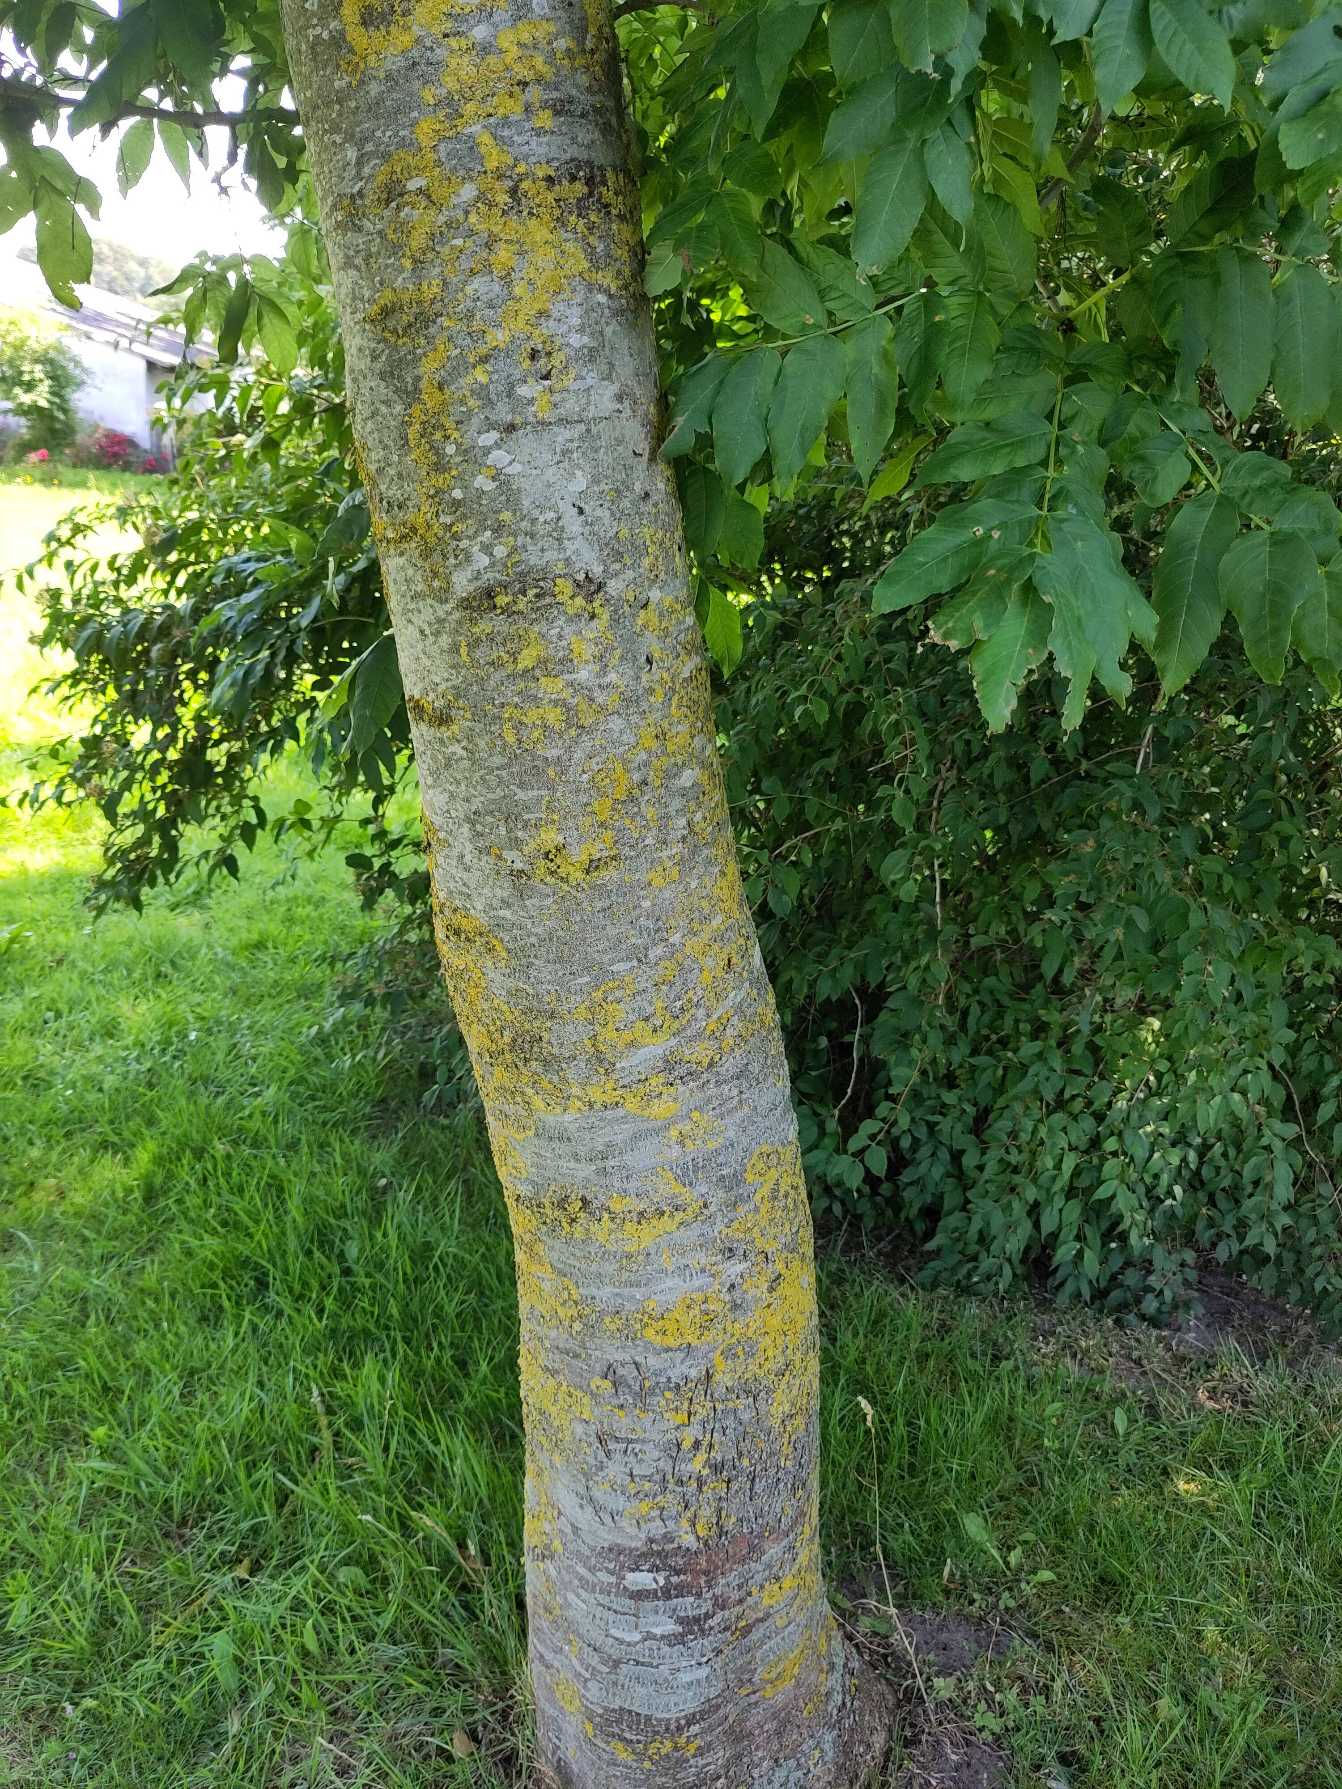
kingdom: Plantae
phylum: Tracheophyta
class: Magnoliopsida
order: Lamiales
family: Oleaceae
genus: Fraxinus
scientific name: Fraxinus excelsior
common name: Ask
